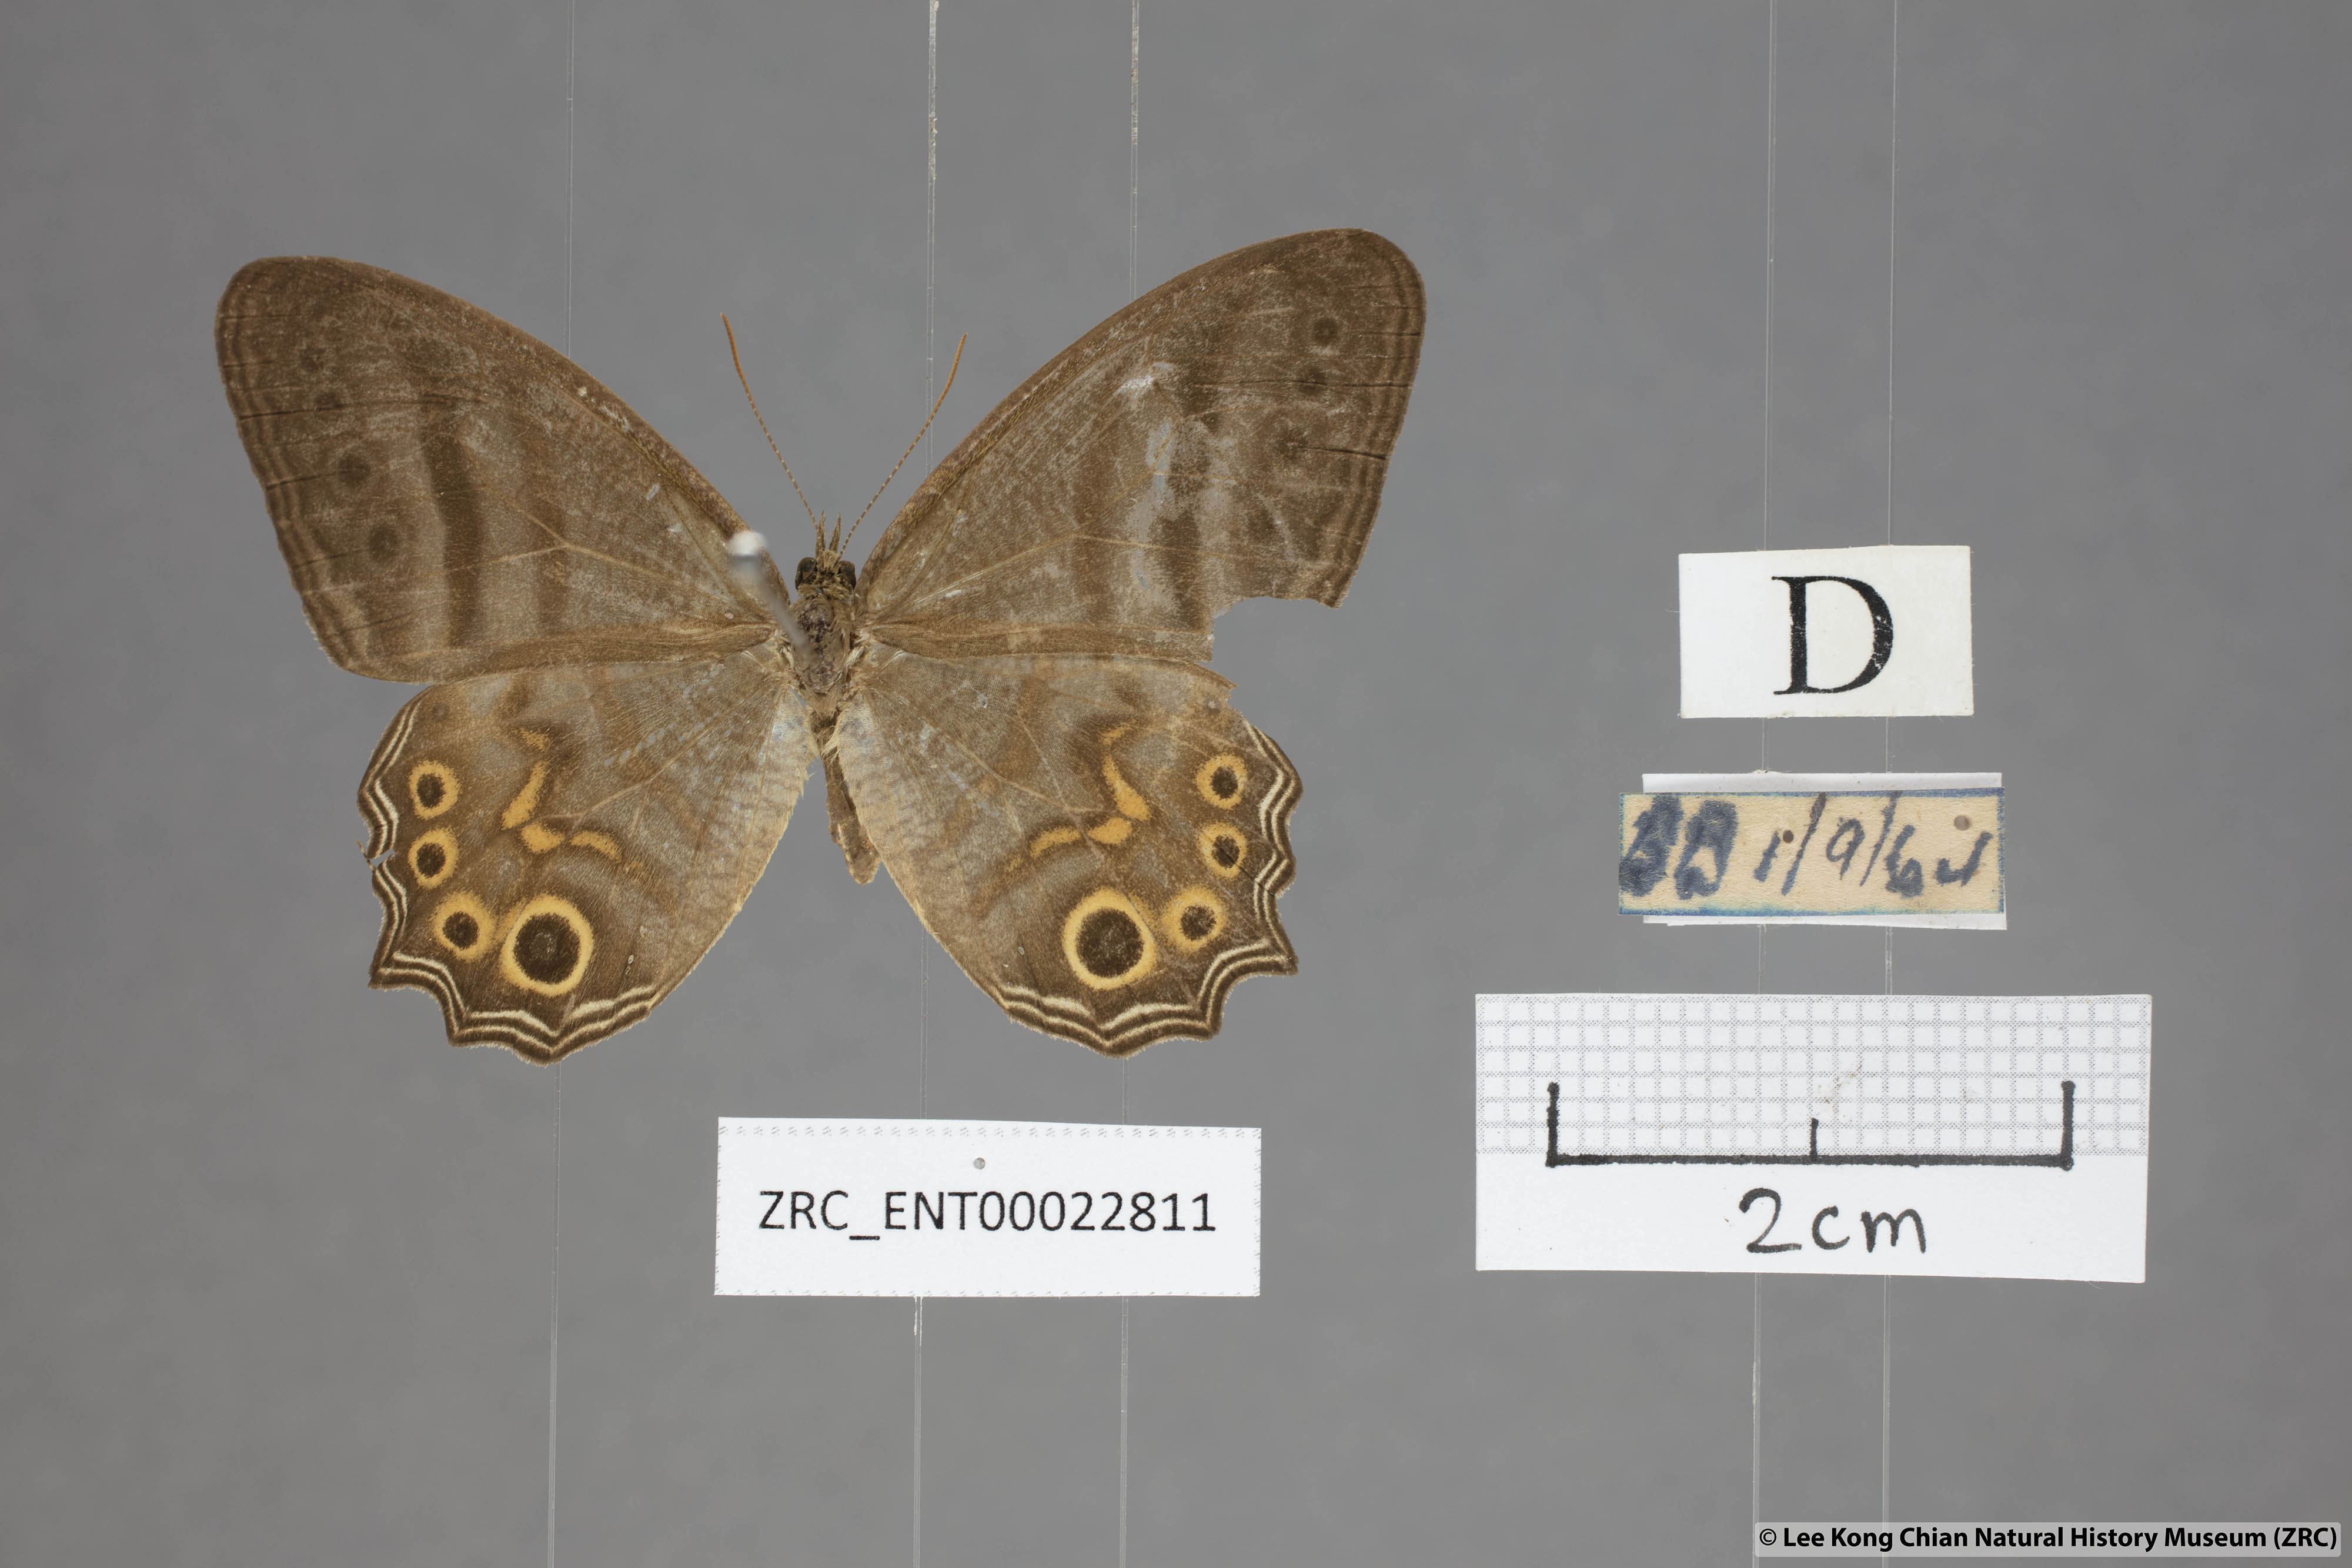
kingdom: Animalia
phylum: Arthropoda
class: Insecta
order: Lepidoptera
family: Nymphalidae
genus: Erites
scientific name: Erites elegans
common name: Elegent cyclops
